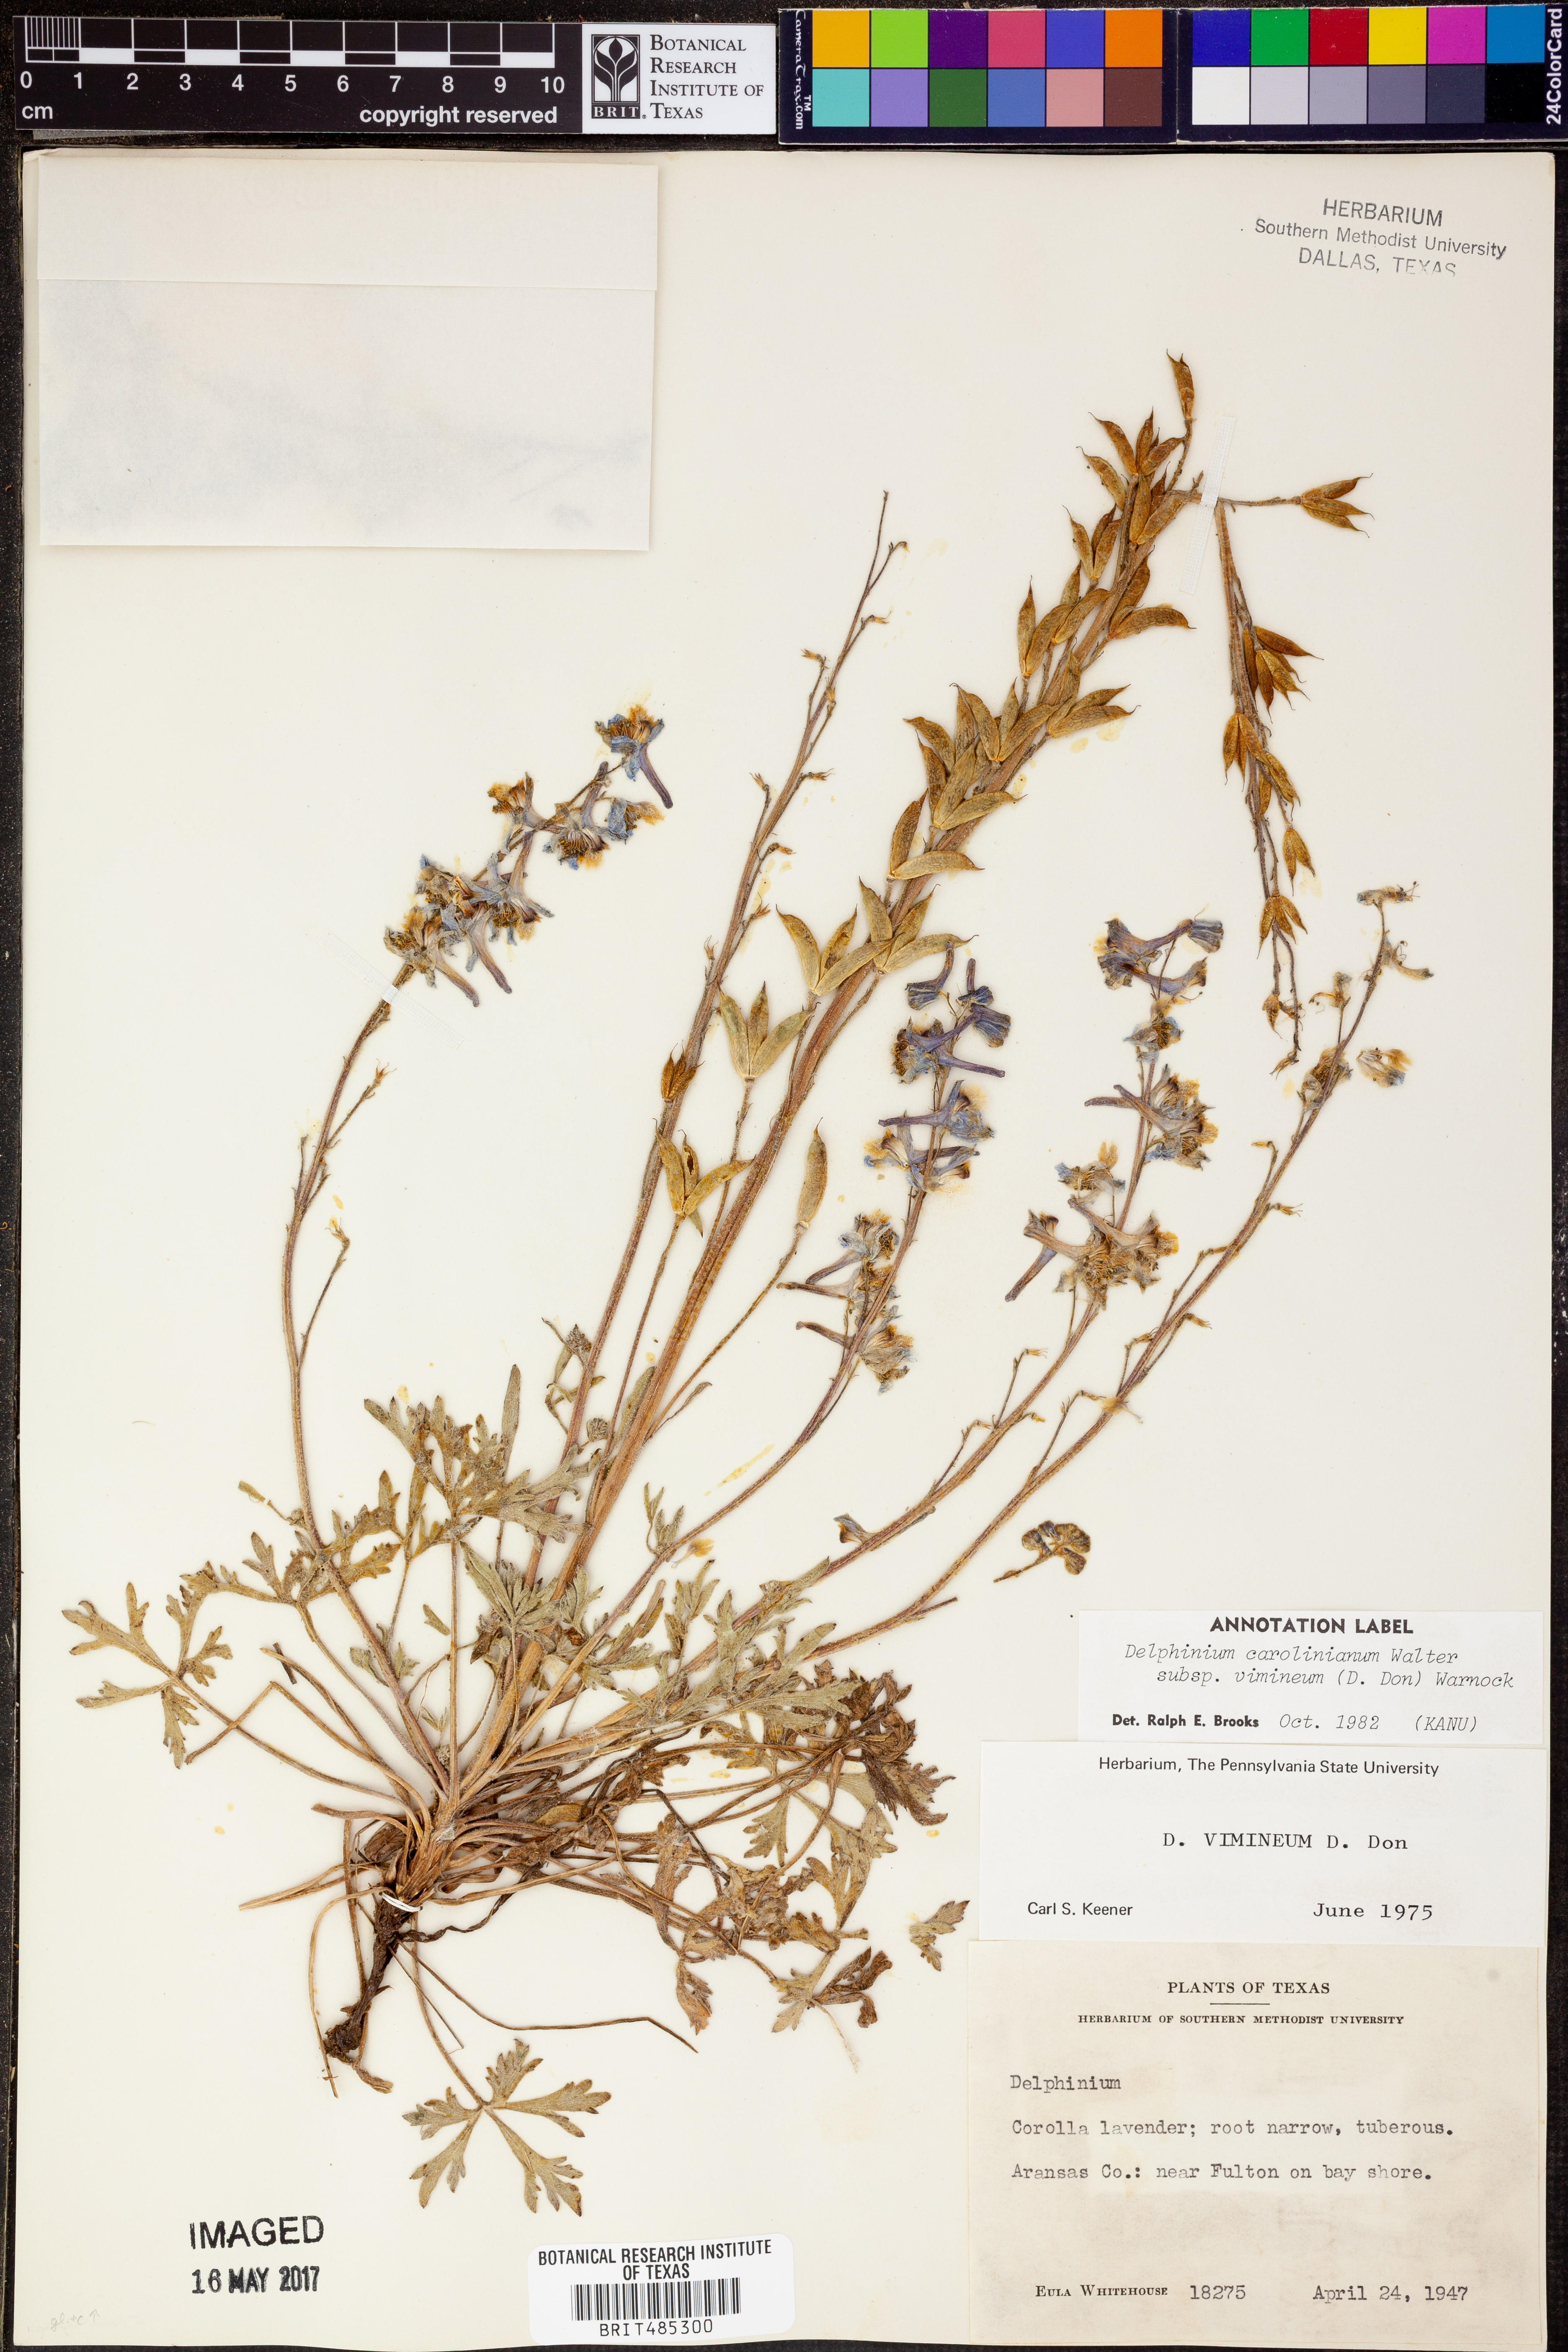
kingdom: Plantae
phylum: Tracheophyta
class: Magnoliopsida
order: Ranunculales
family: Ranunculaceae
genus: Delphinium
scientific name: Delphinium carolinianum
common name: Carolina larkspur
